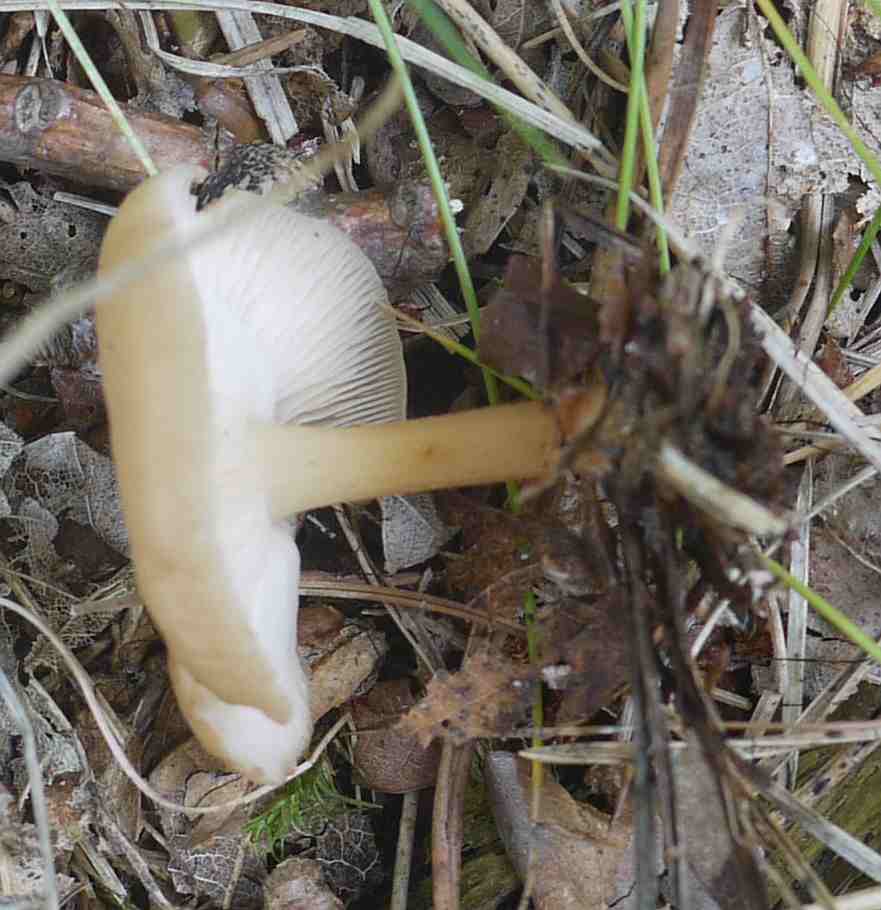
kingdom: Fungi
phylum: Basidiomycota
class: Agaricomycetes
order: Agaricales
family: Omphalotaceae
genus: Gymnopus
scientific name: Gymnopus dryophilus
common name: løv-fladhat
